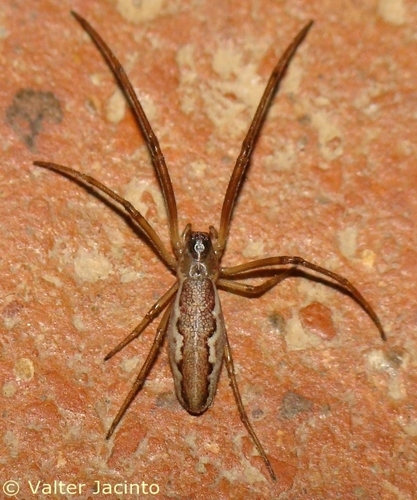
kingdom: Animalia
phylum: Arthropoda
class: Arachnida
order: Araneae
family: Tetragnathidae
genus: Tetragnatha
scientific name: Tetragnatha
